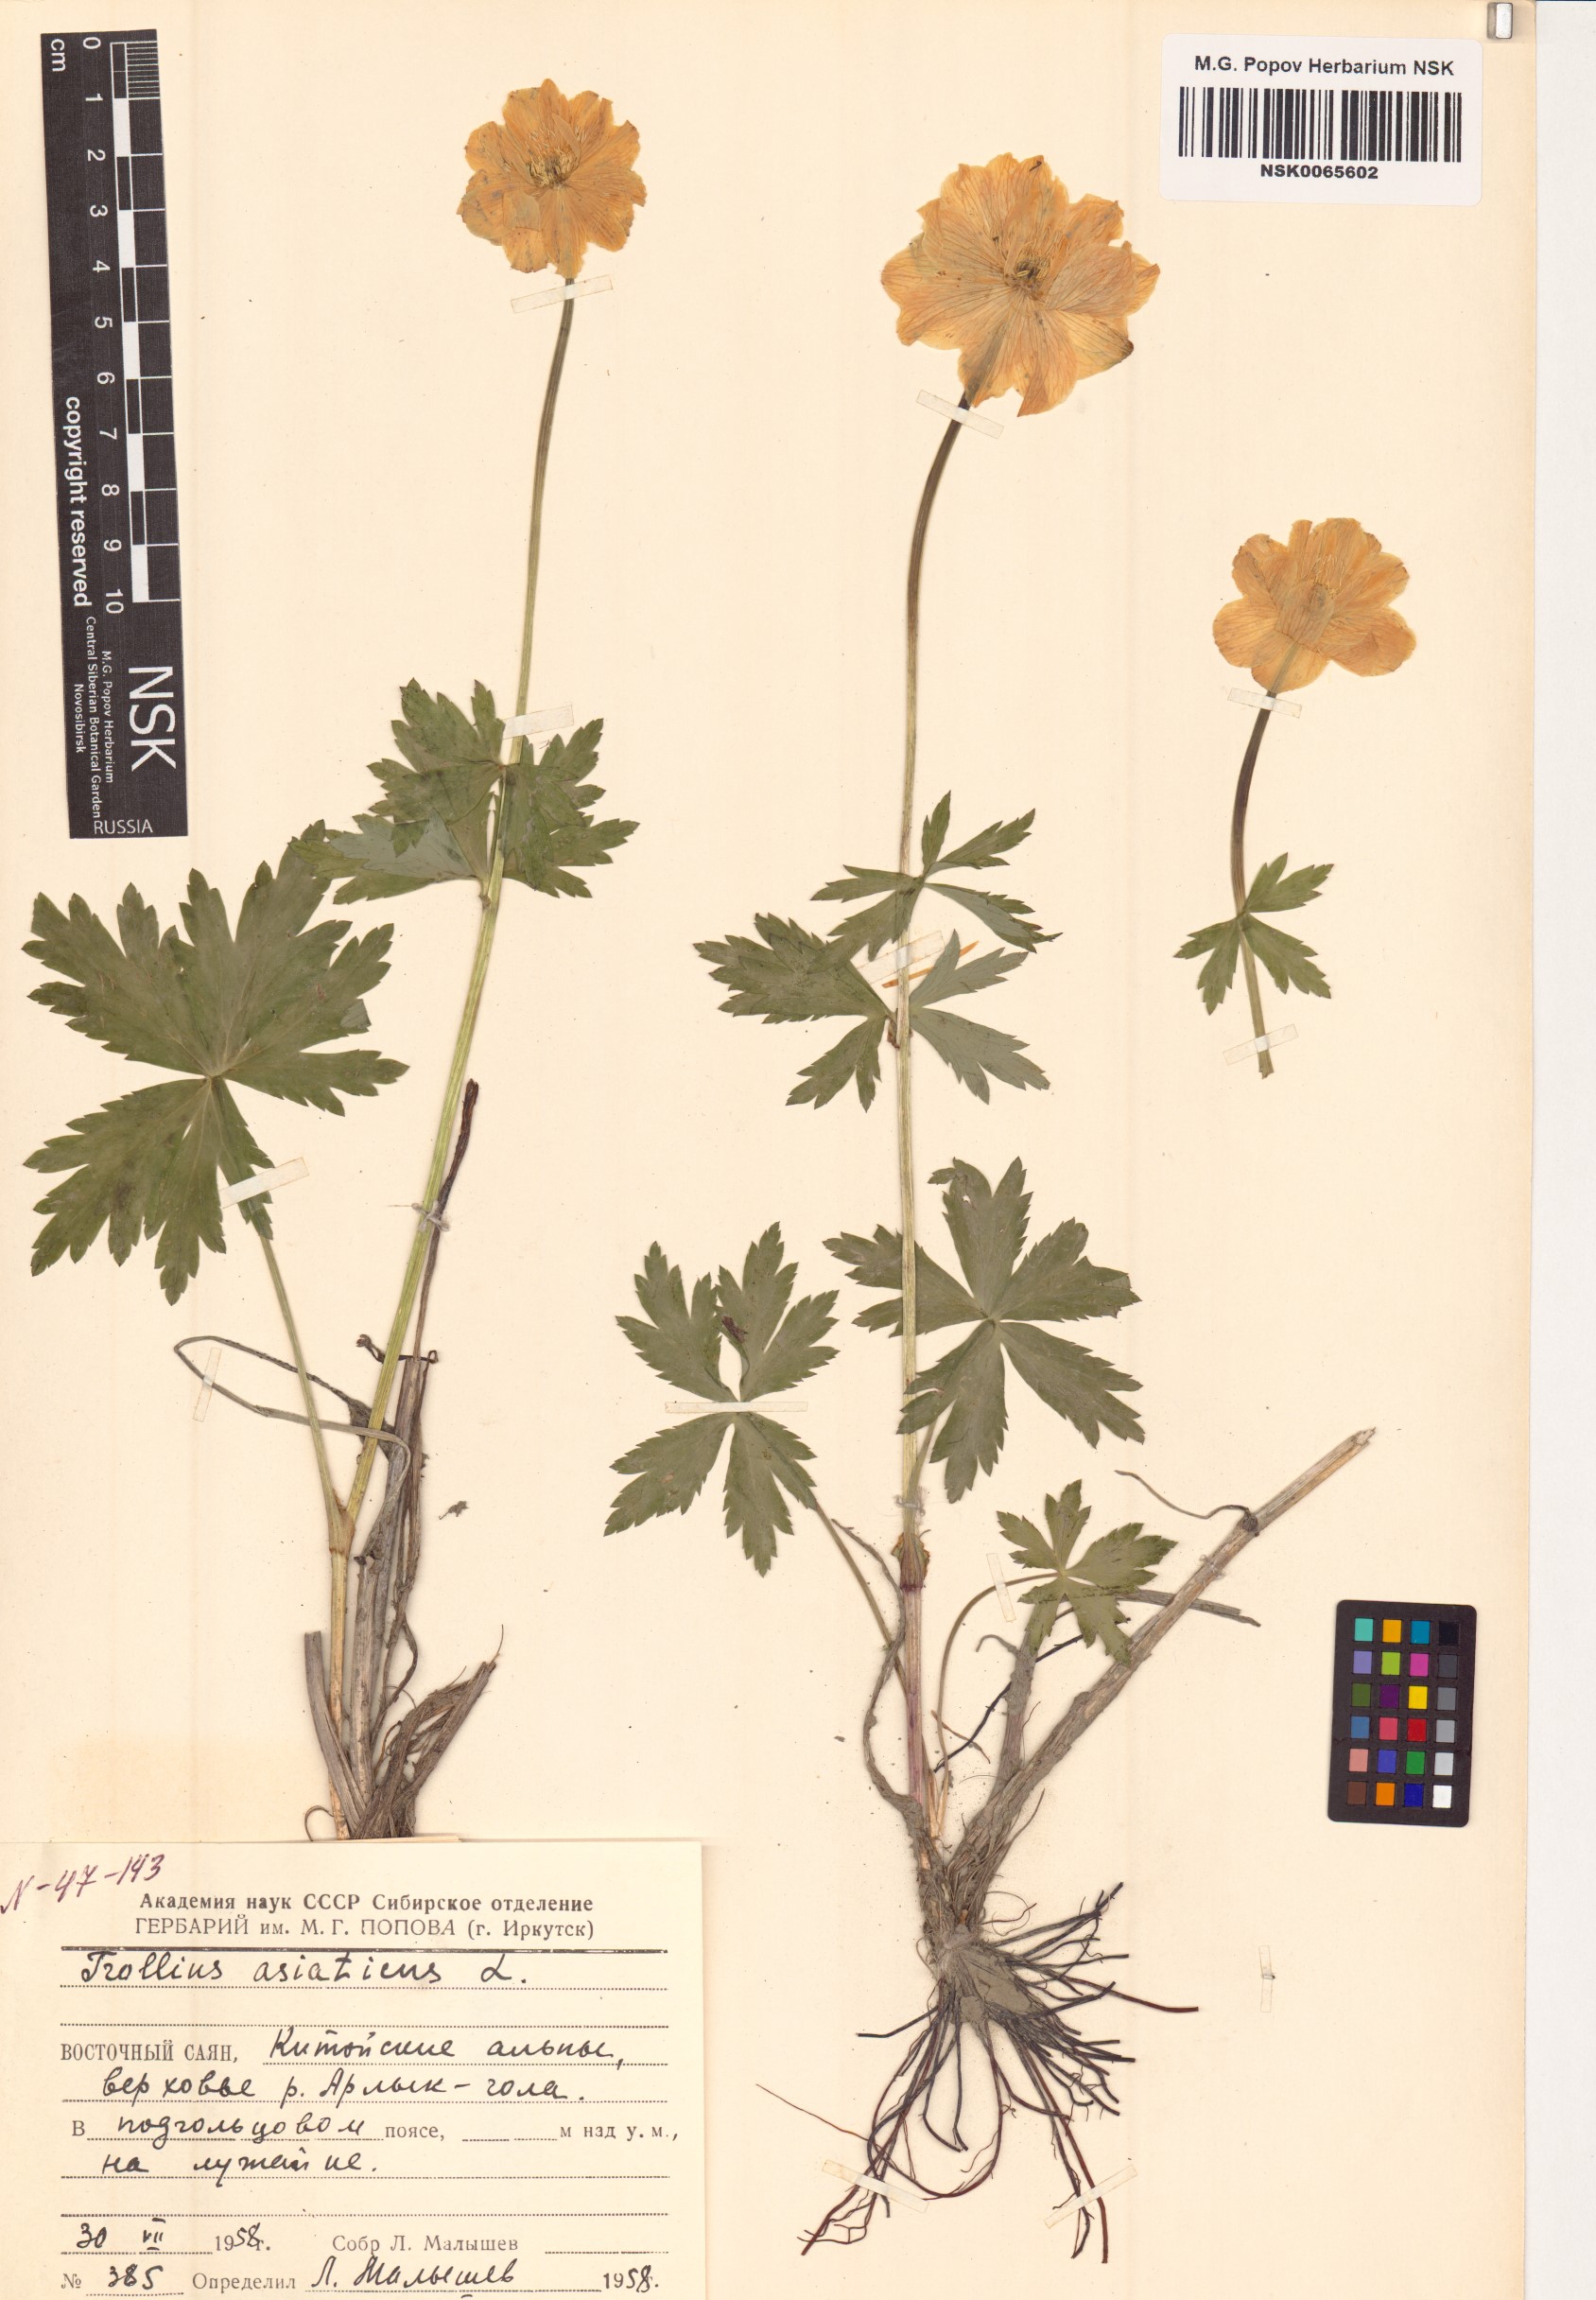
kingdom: Plantae
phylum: Tracheophyta
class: Magnoliopsida
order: Ranunculales
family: Ranunculaceae
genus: Trollius
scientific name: Trollius asiaticus
